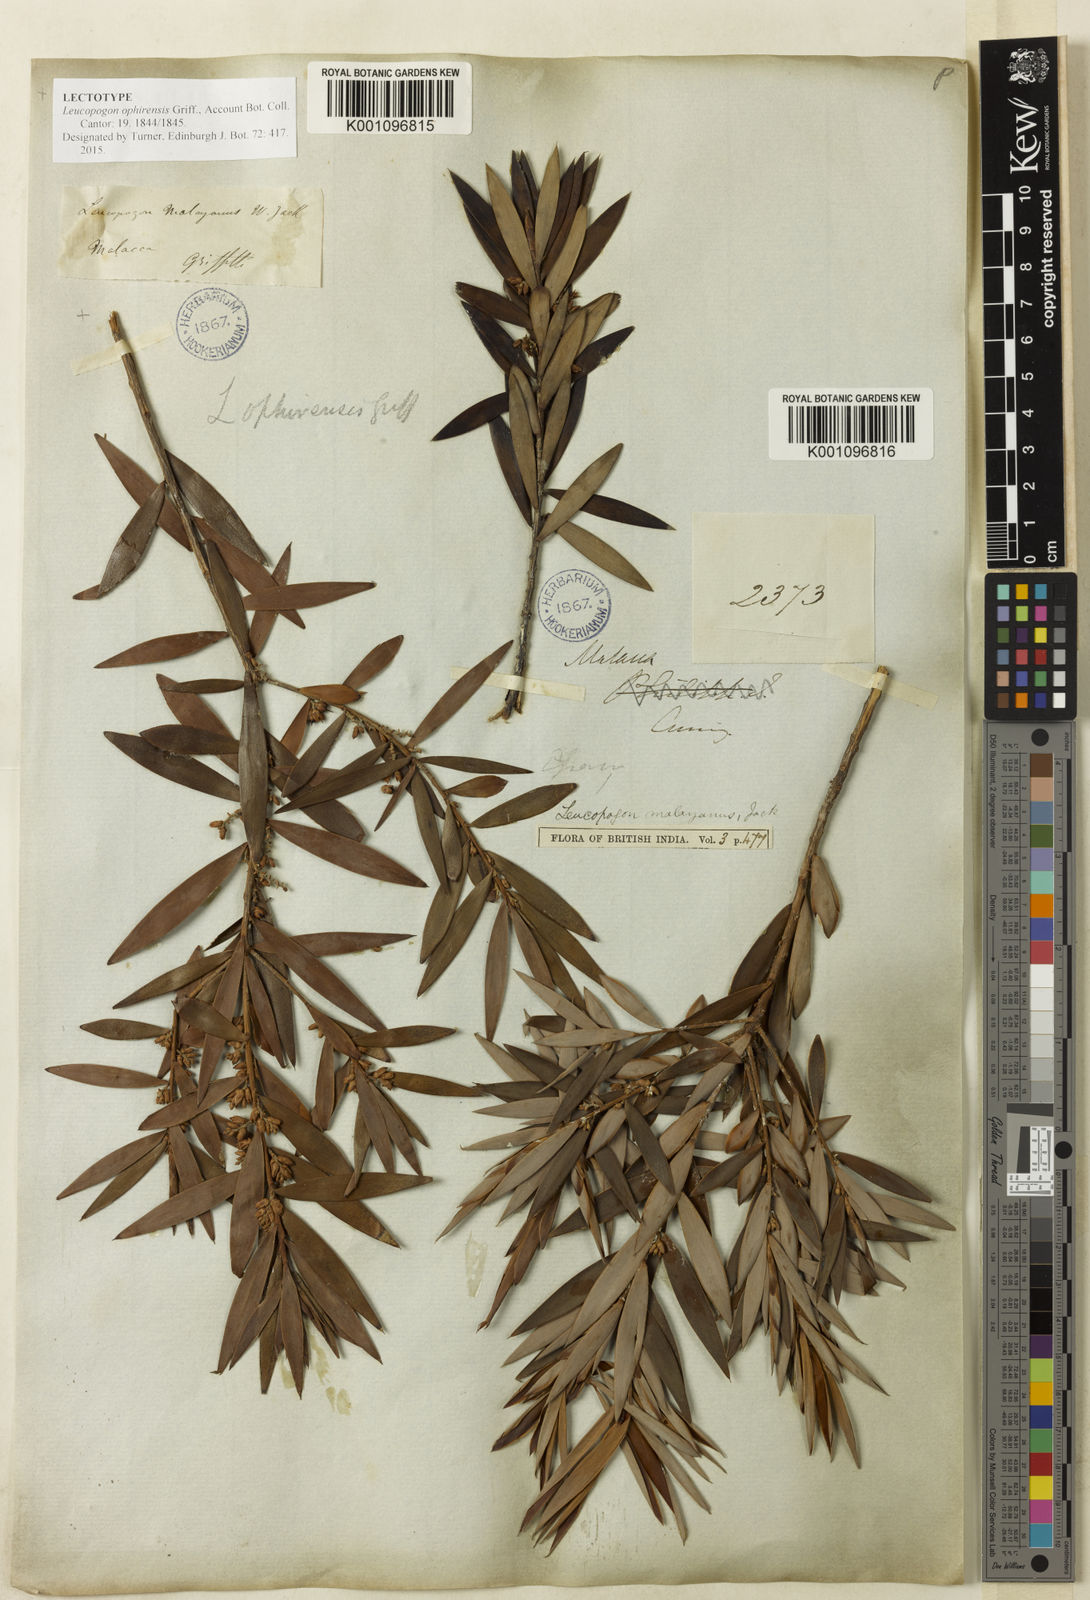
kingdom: Plantae
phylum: Tracheophyta
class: Magnoliopsida
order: Ericales
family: Ericaceae
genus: Styphelia
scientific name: Styphelia
